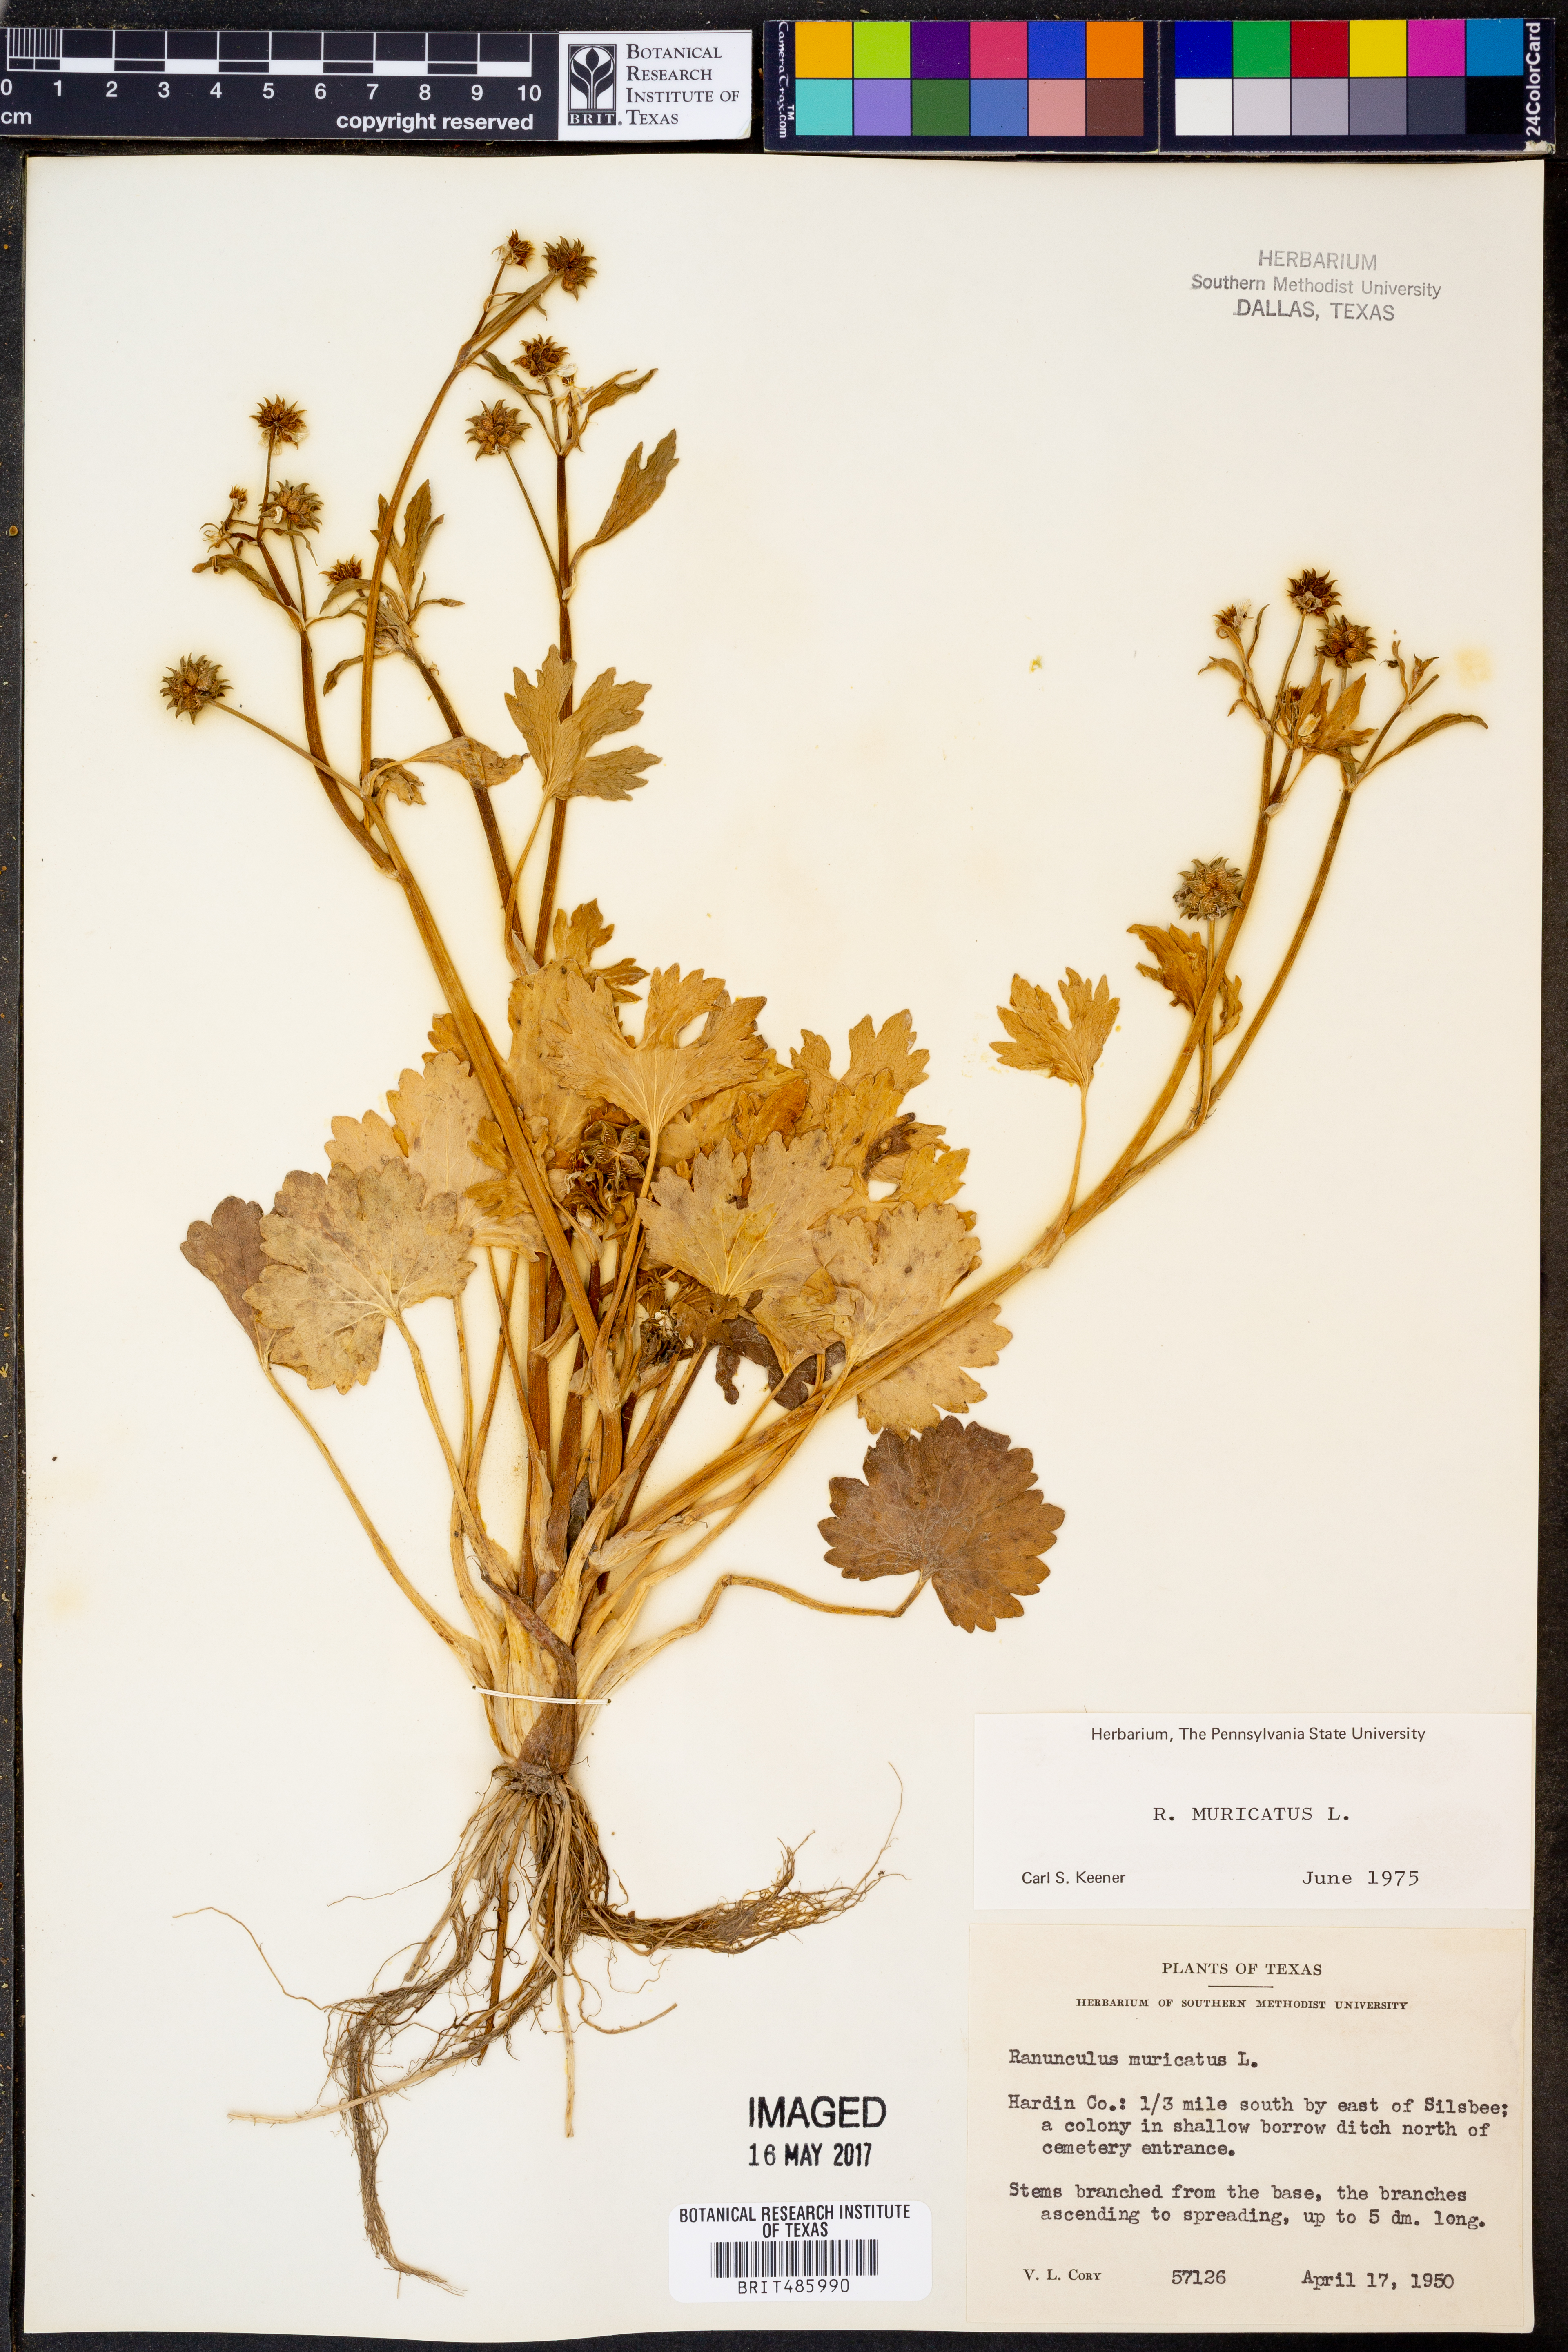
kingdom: Plantae
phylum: Tracheophyta
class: Magnoliopsida
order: Ranunculales
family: Ranunculaceae
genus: Ranunculus
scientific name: Ranunculus muricatus
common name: Rough-fruited buttercup
